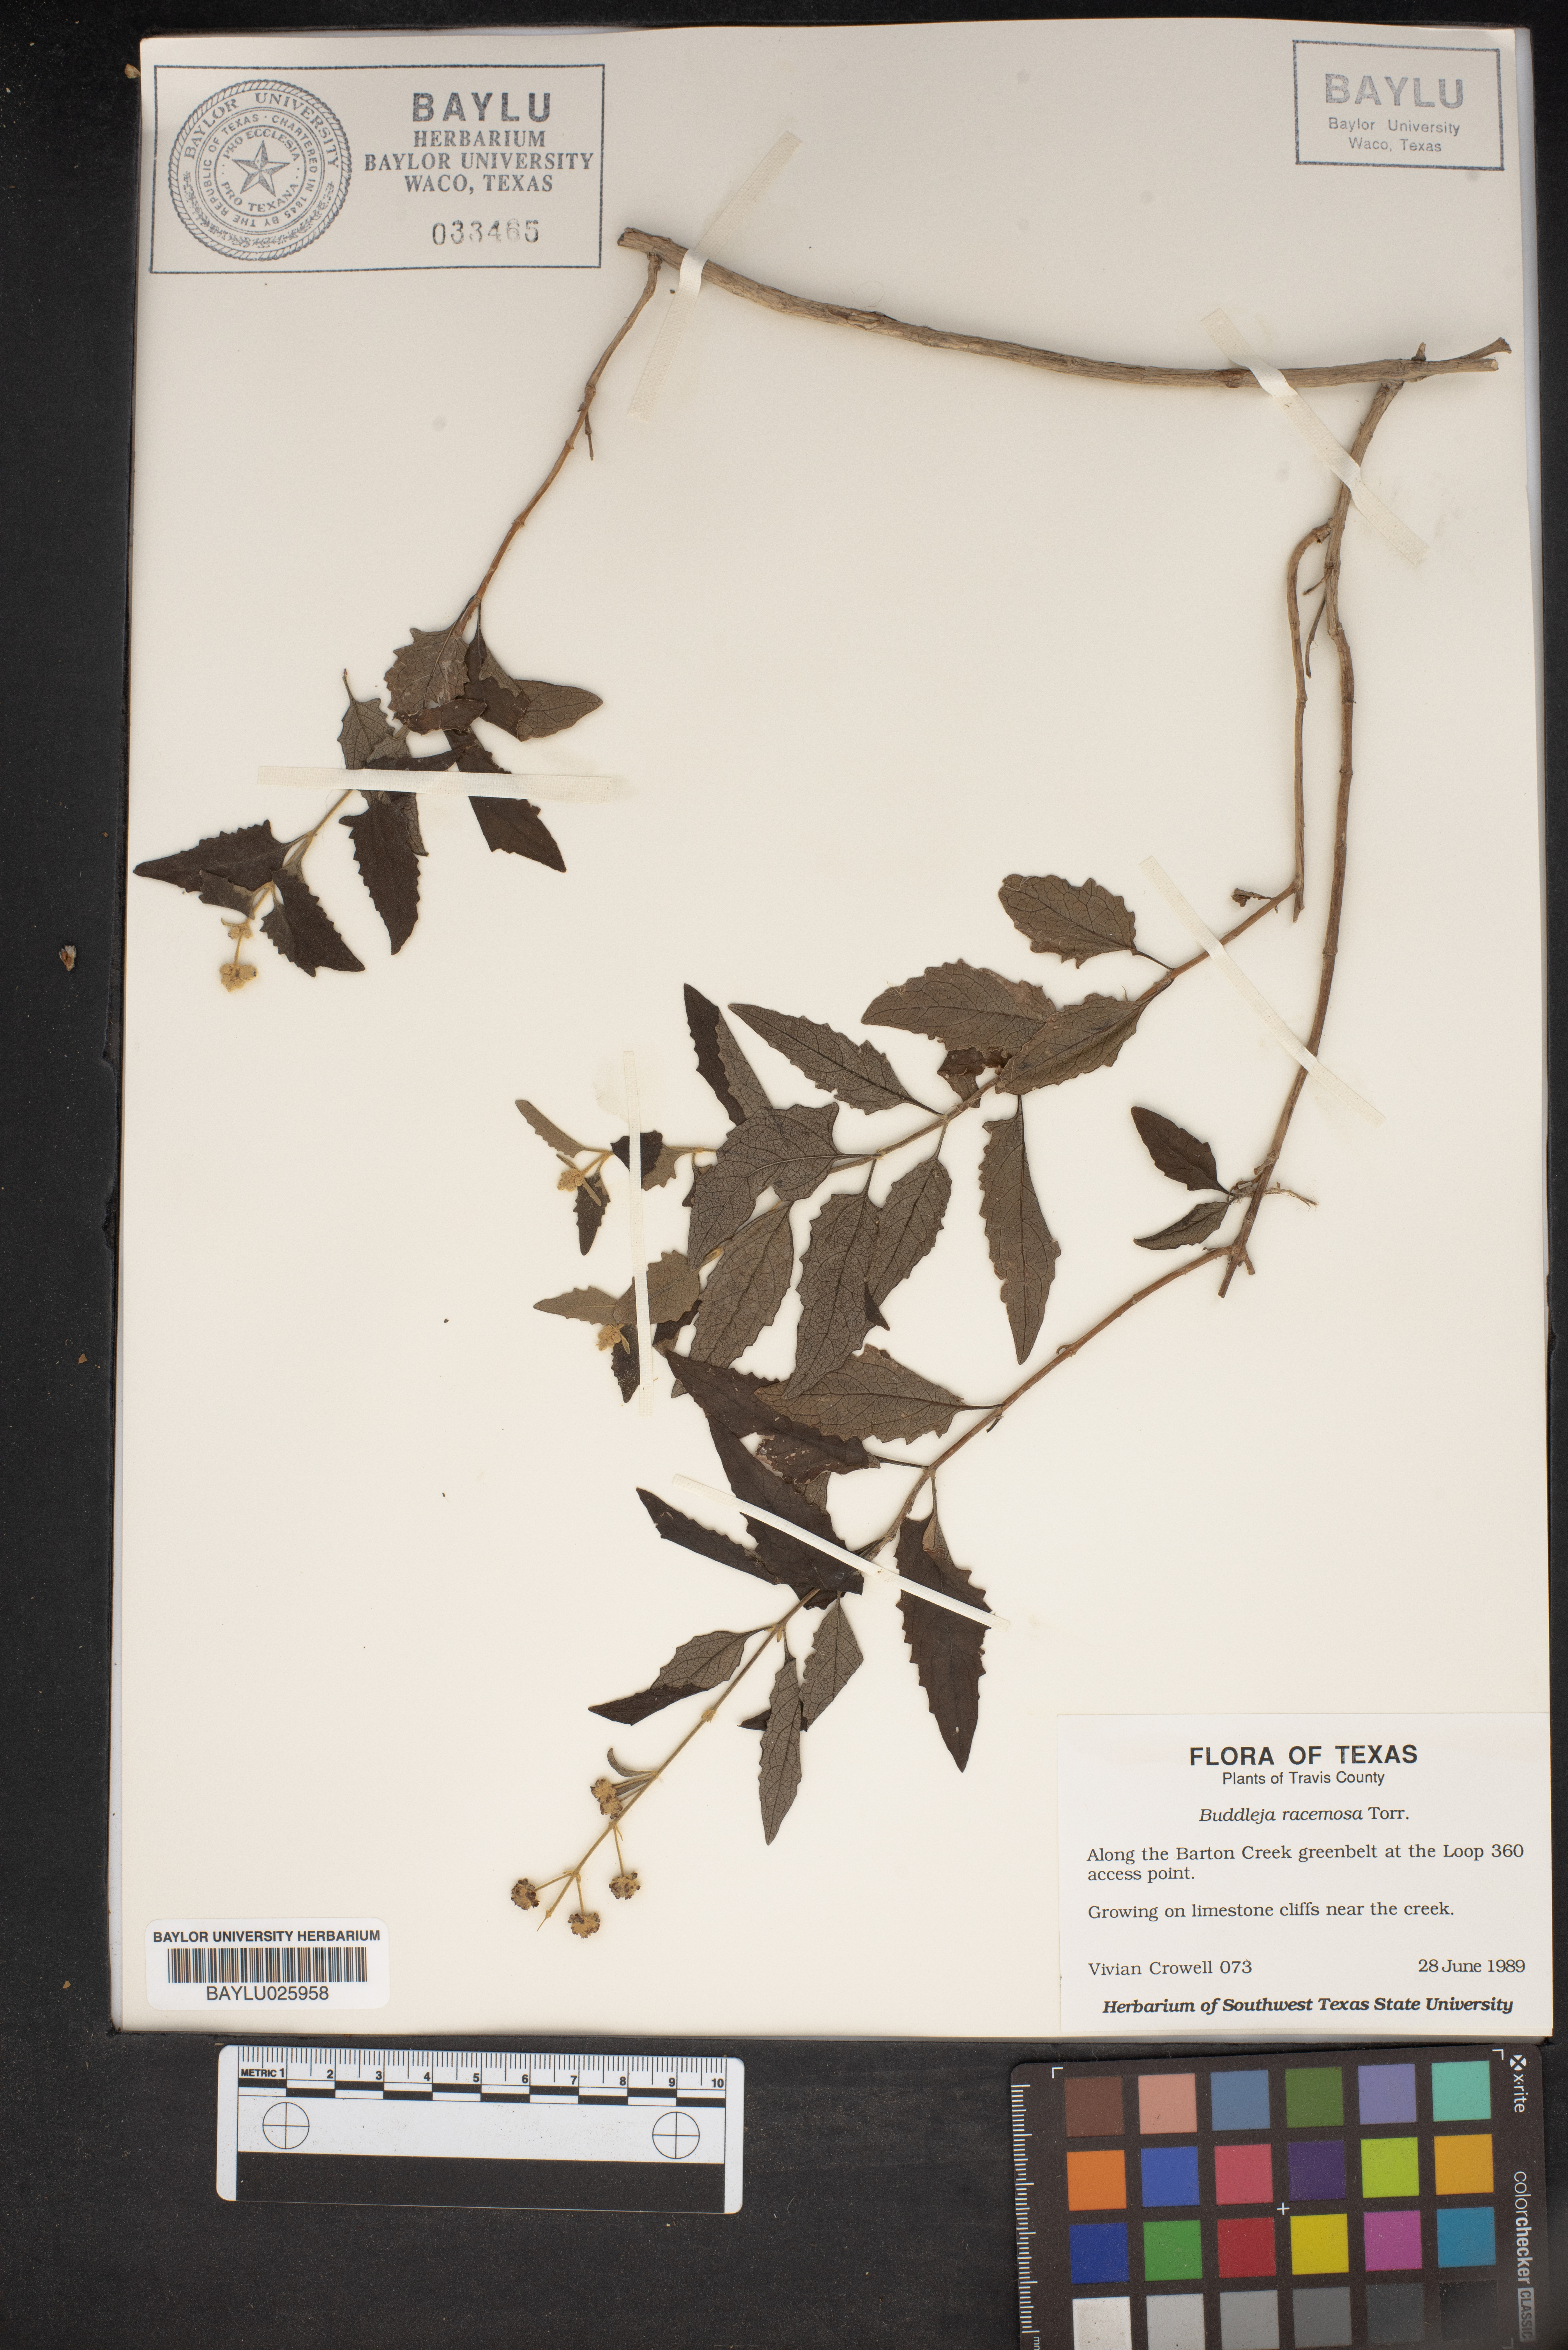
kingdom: Plantae
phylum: Tracheophyta
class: Magnoliopsida
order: Lamiales
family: Scrophulariaceae
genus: Buddleja
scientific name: Buddleja racemosa
